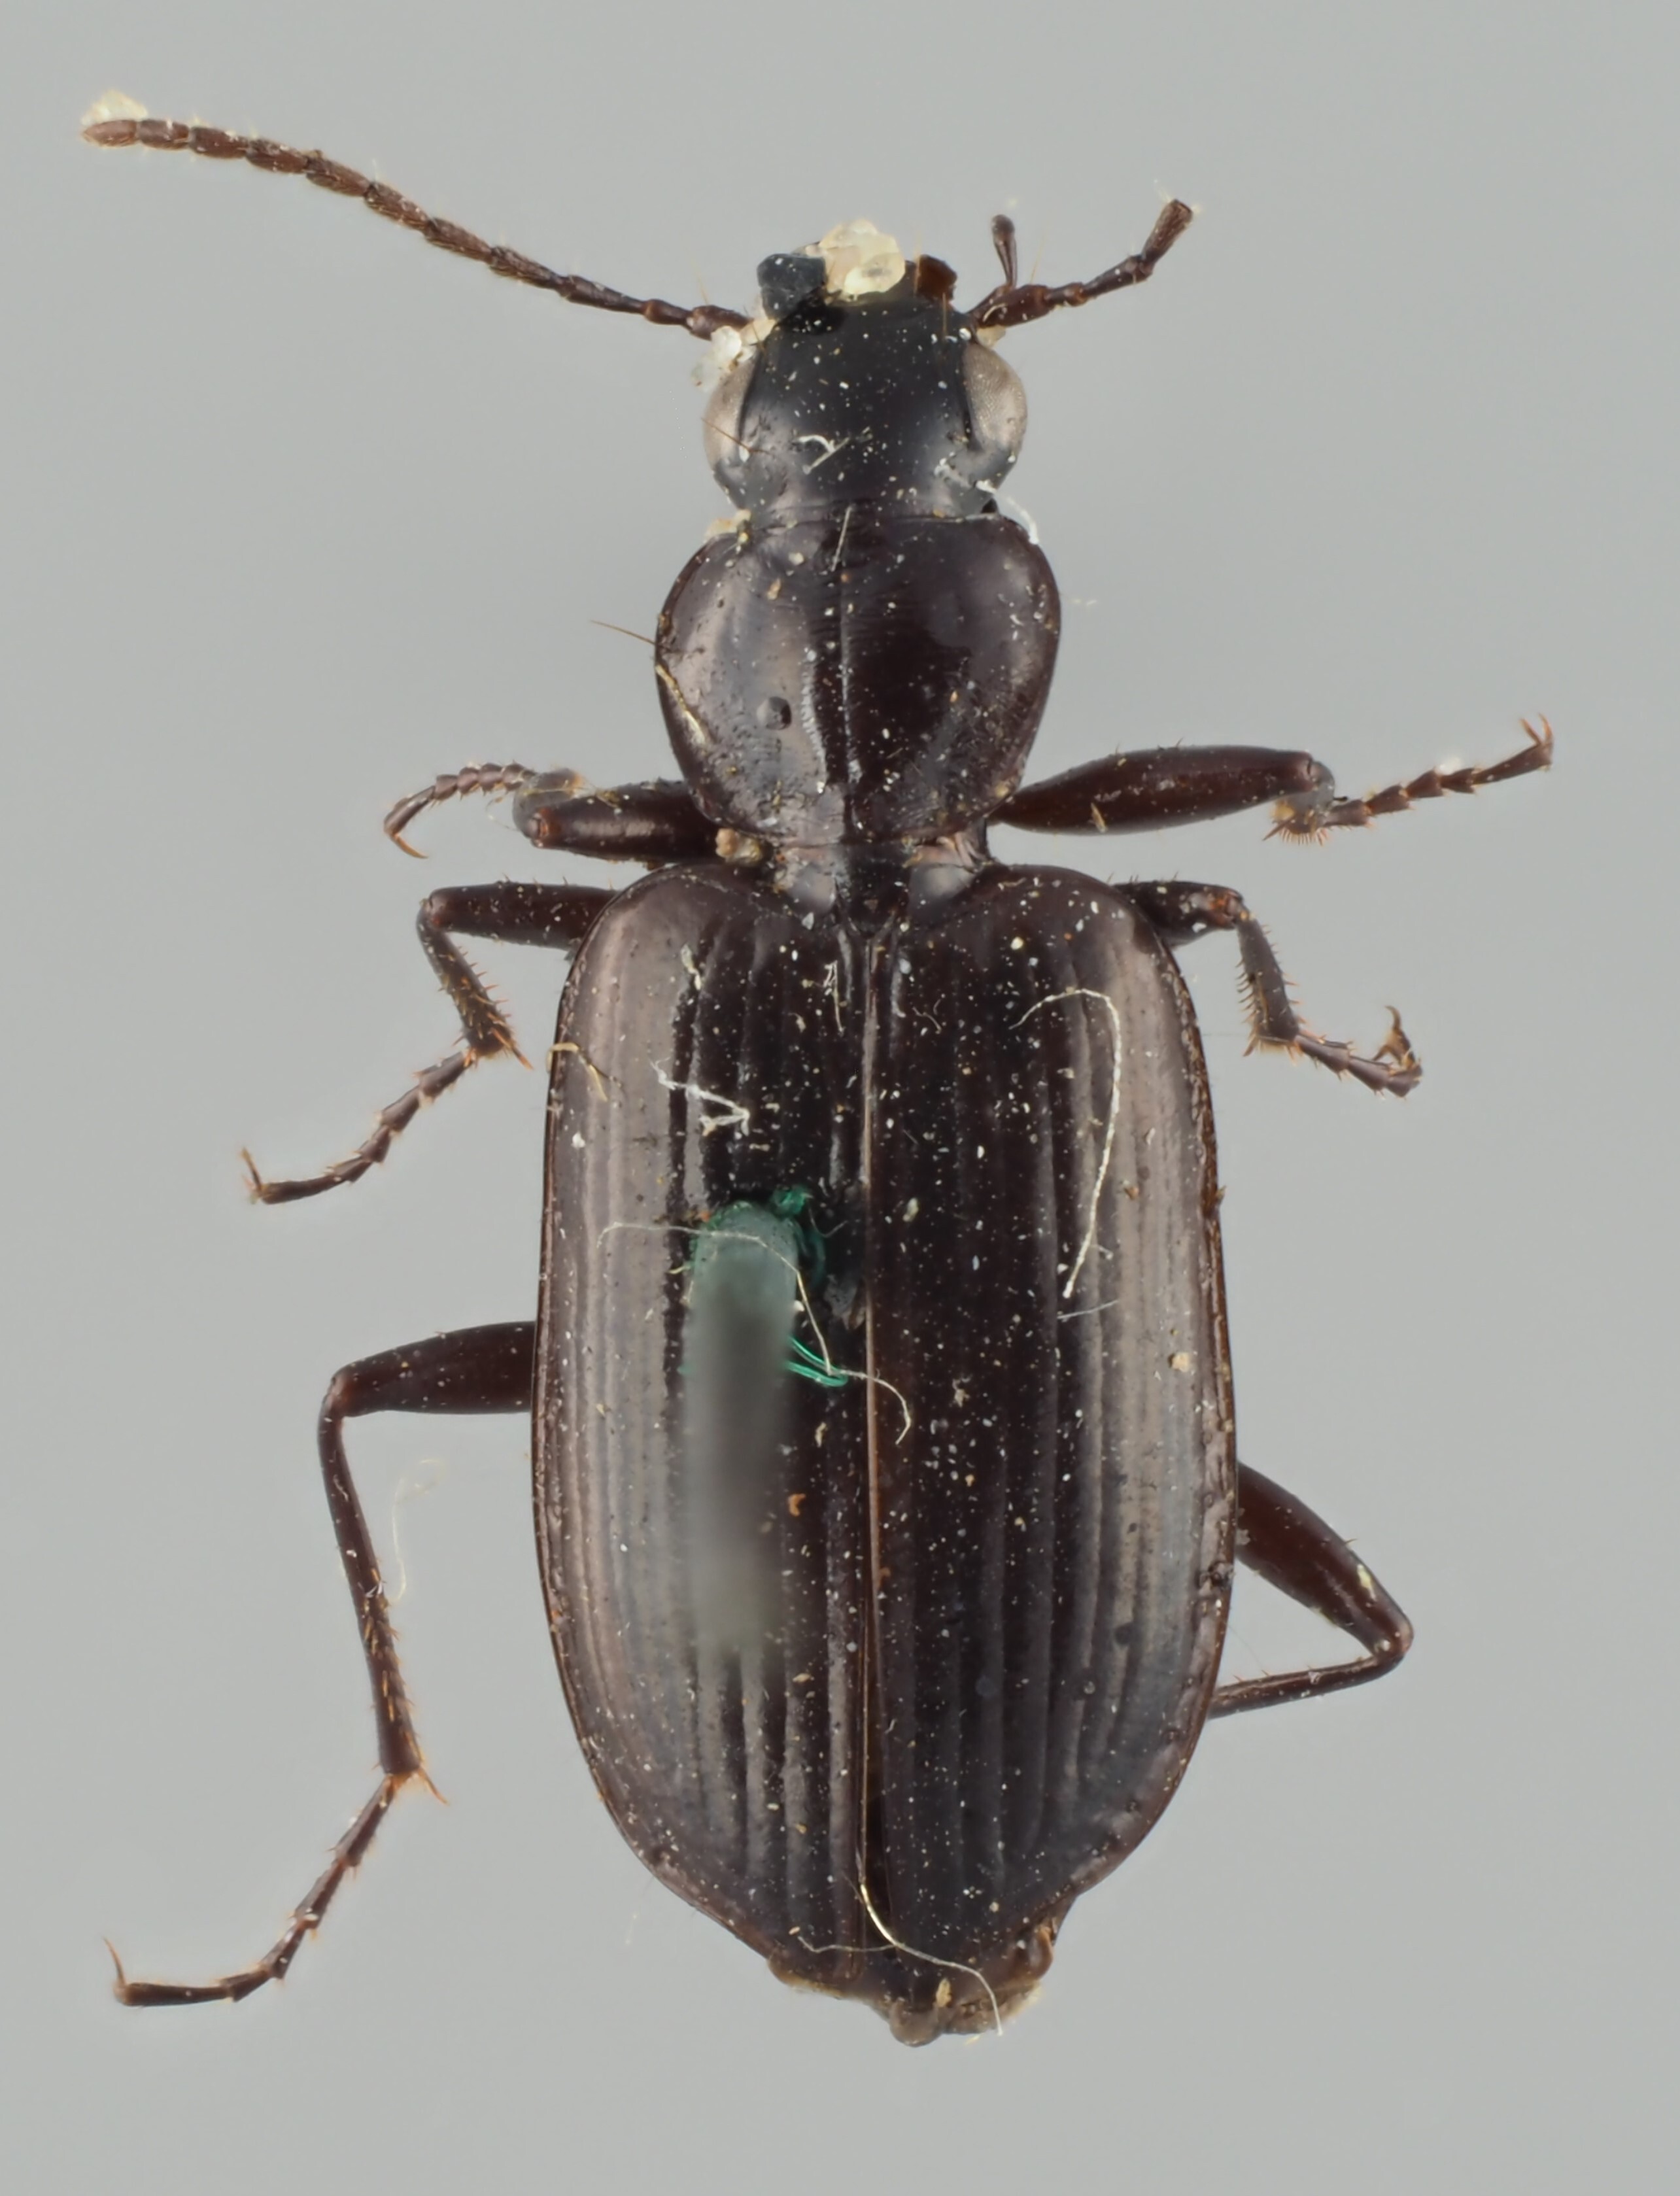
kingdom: Animalia
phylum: Arthropoda
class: Insecta
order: Coleoptera
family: Carabidae
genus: Sericoda
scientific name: Sericoda bogemannii
